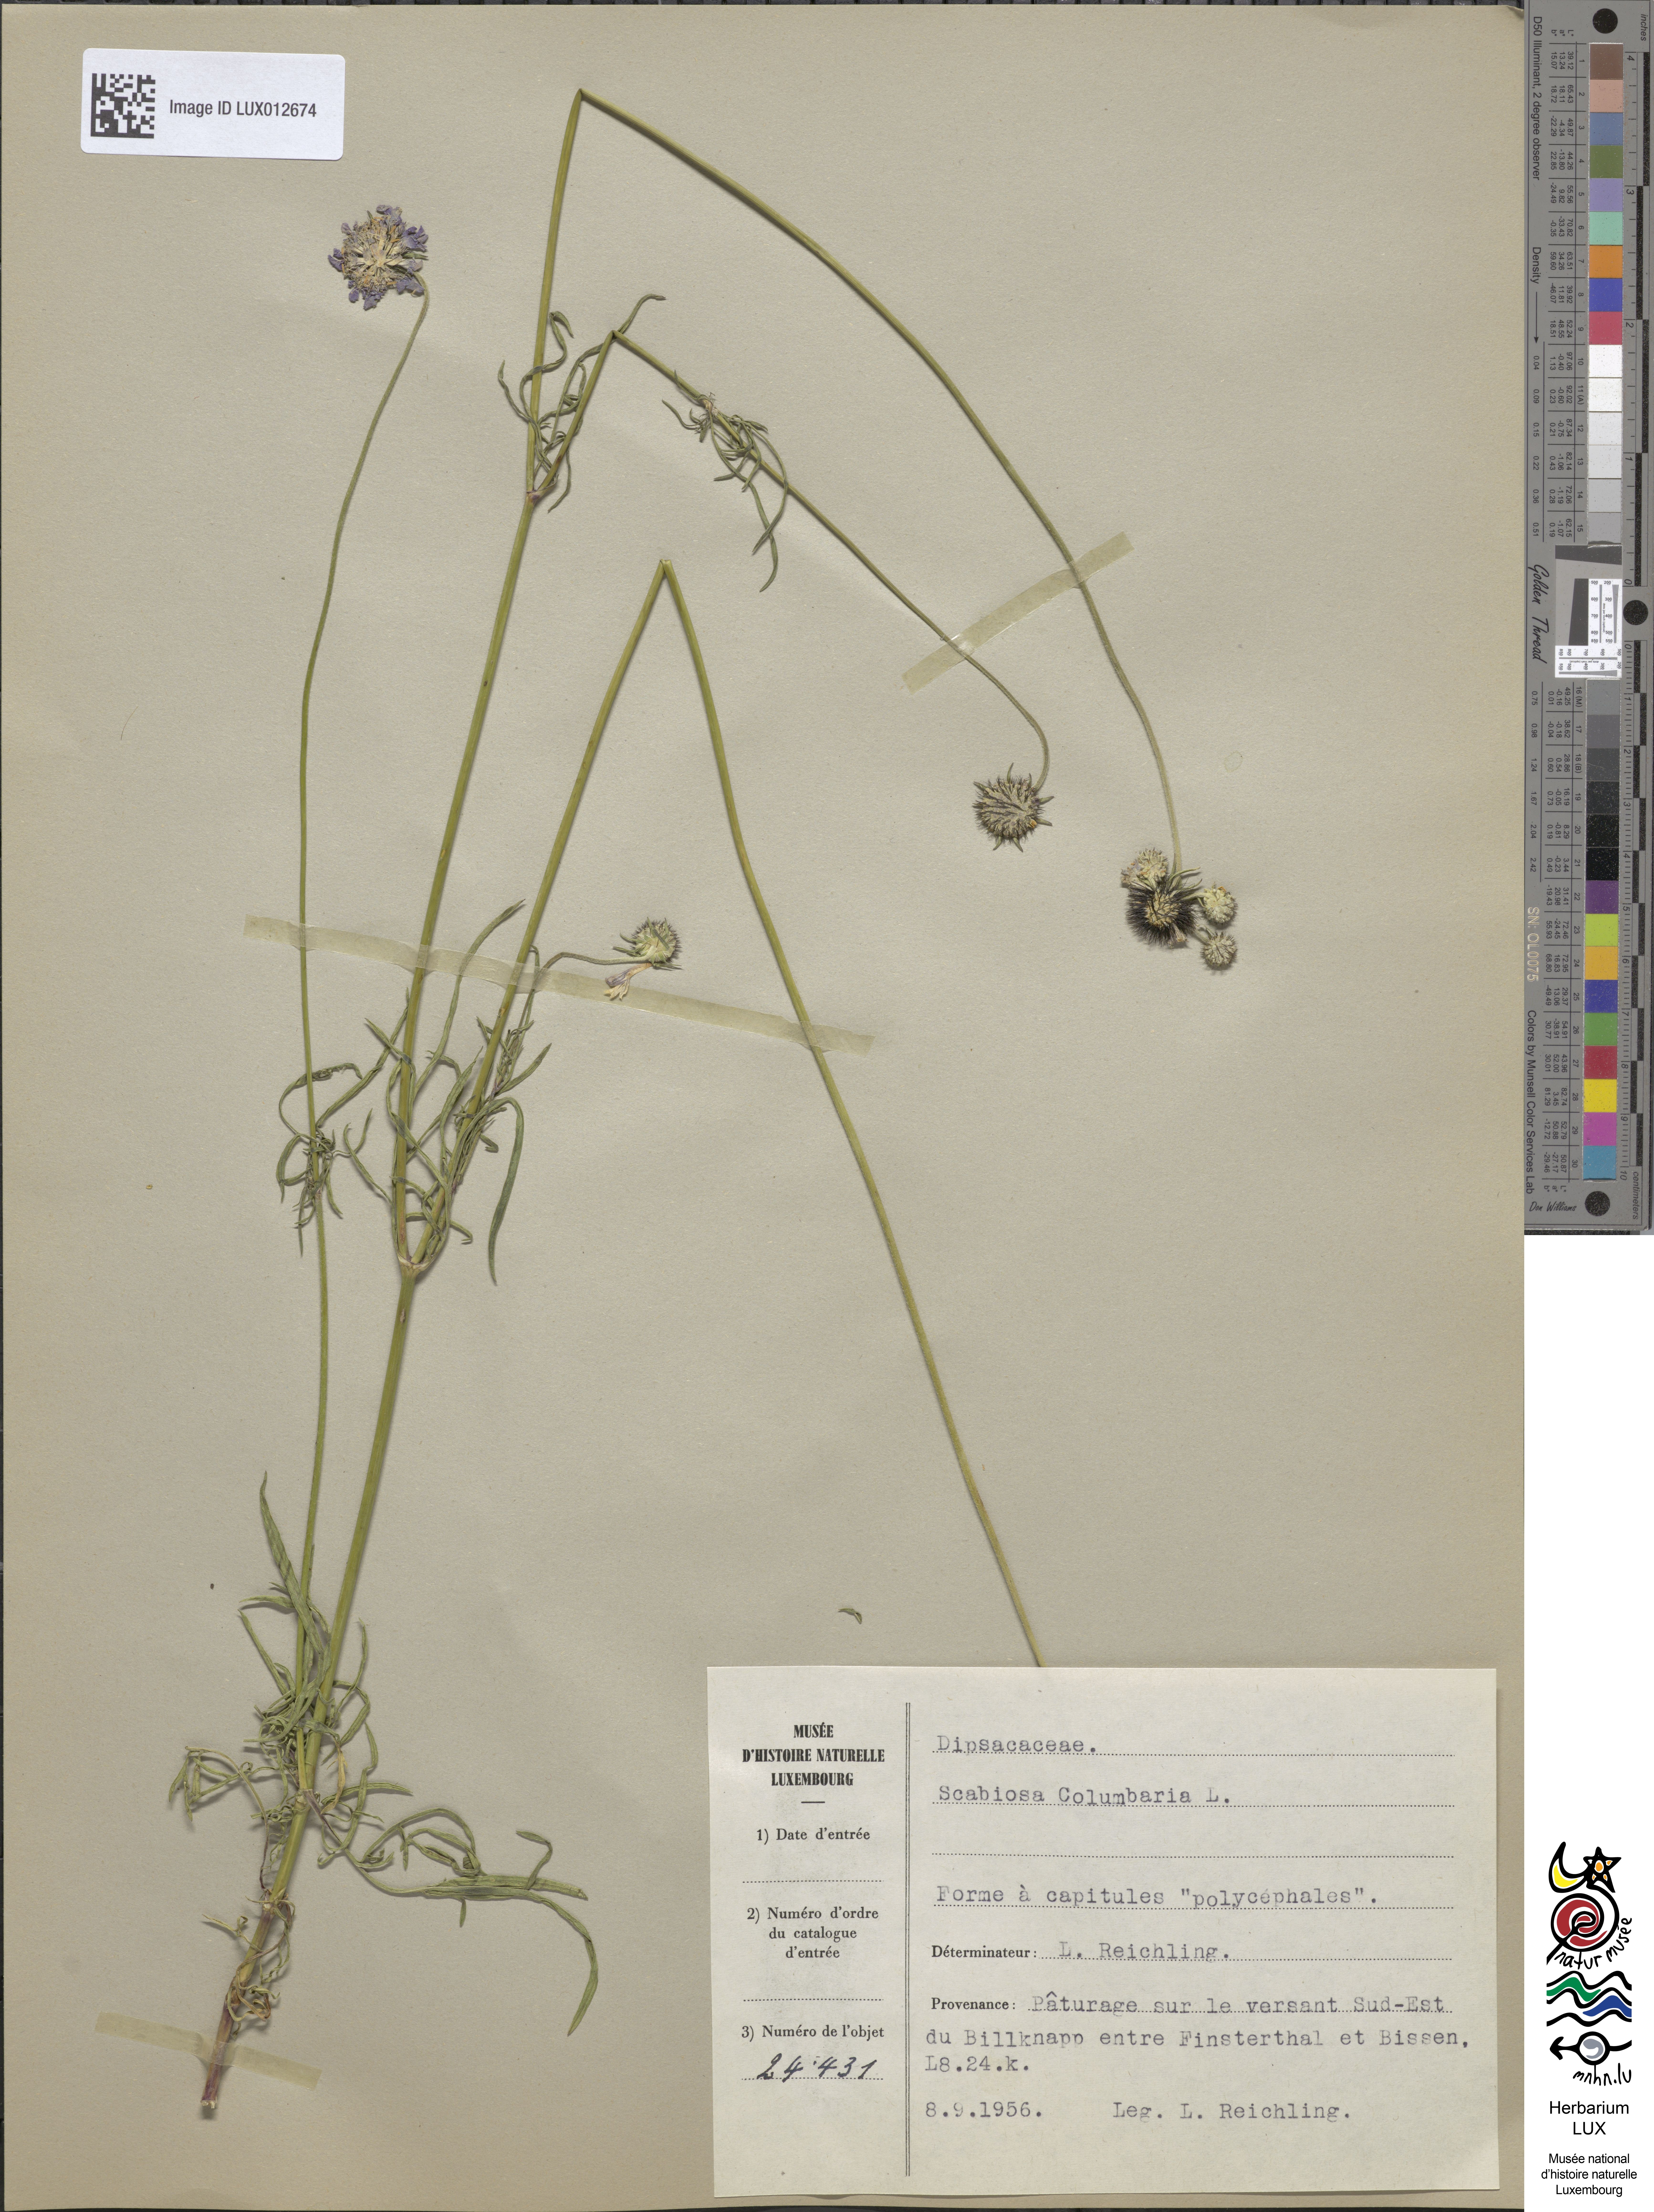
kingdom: Plantae
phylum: Tracheophyta
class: Magnoliopsida
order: Dipsacales
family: Caprifoliaceae
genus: Scabiosa
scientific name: Scabiosa columbaria
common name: Small scabious
